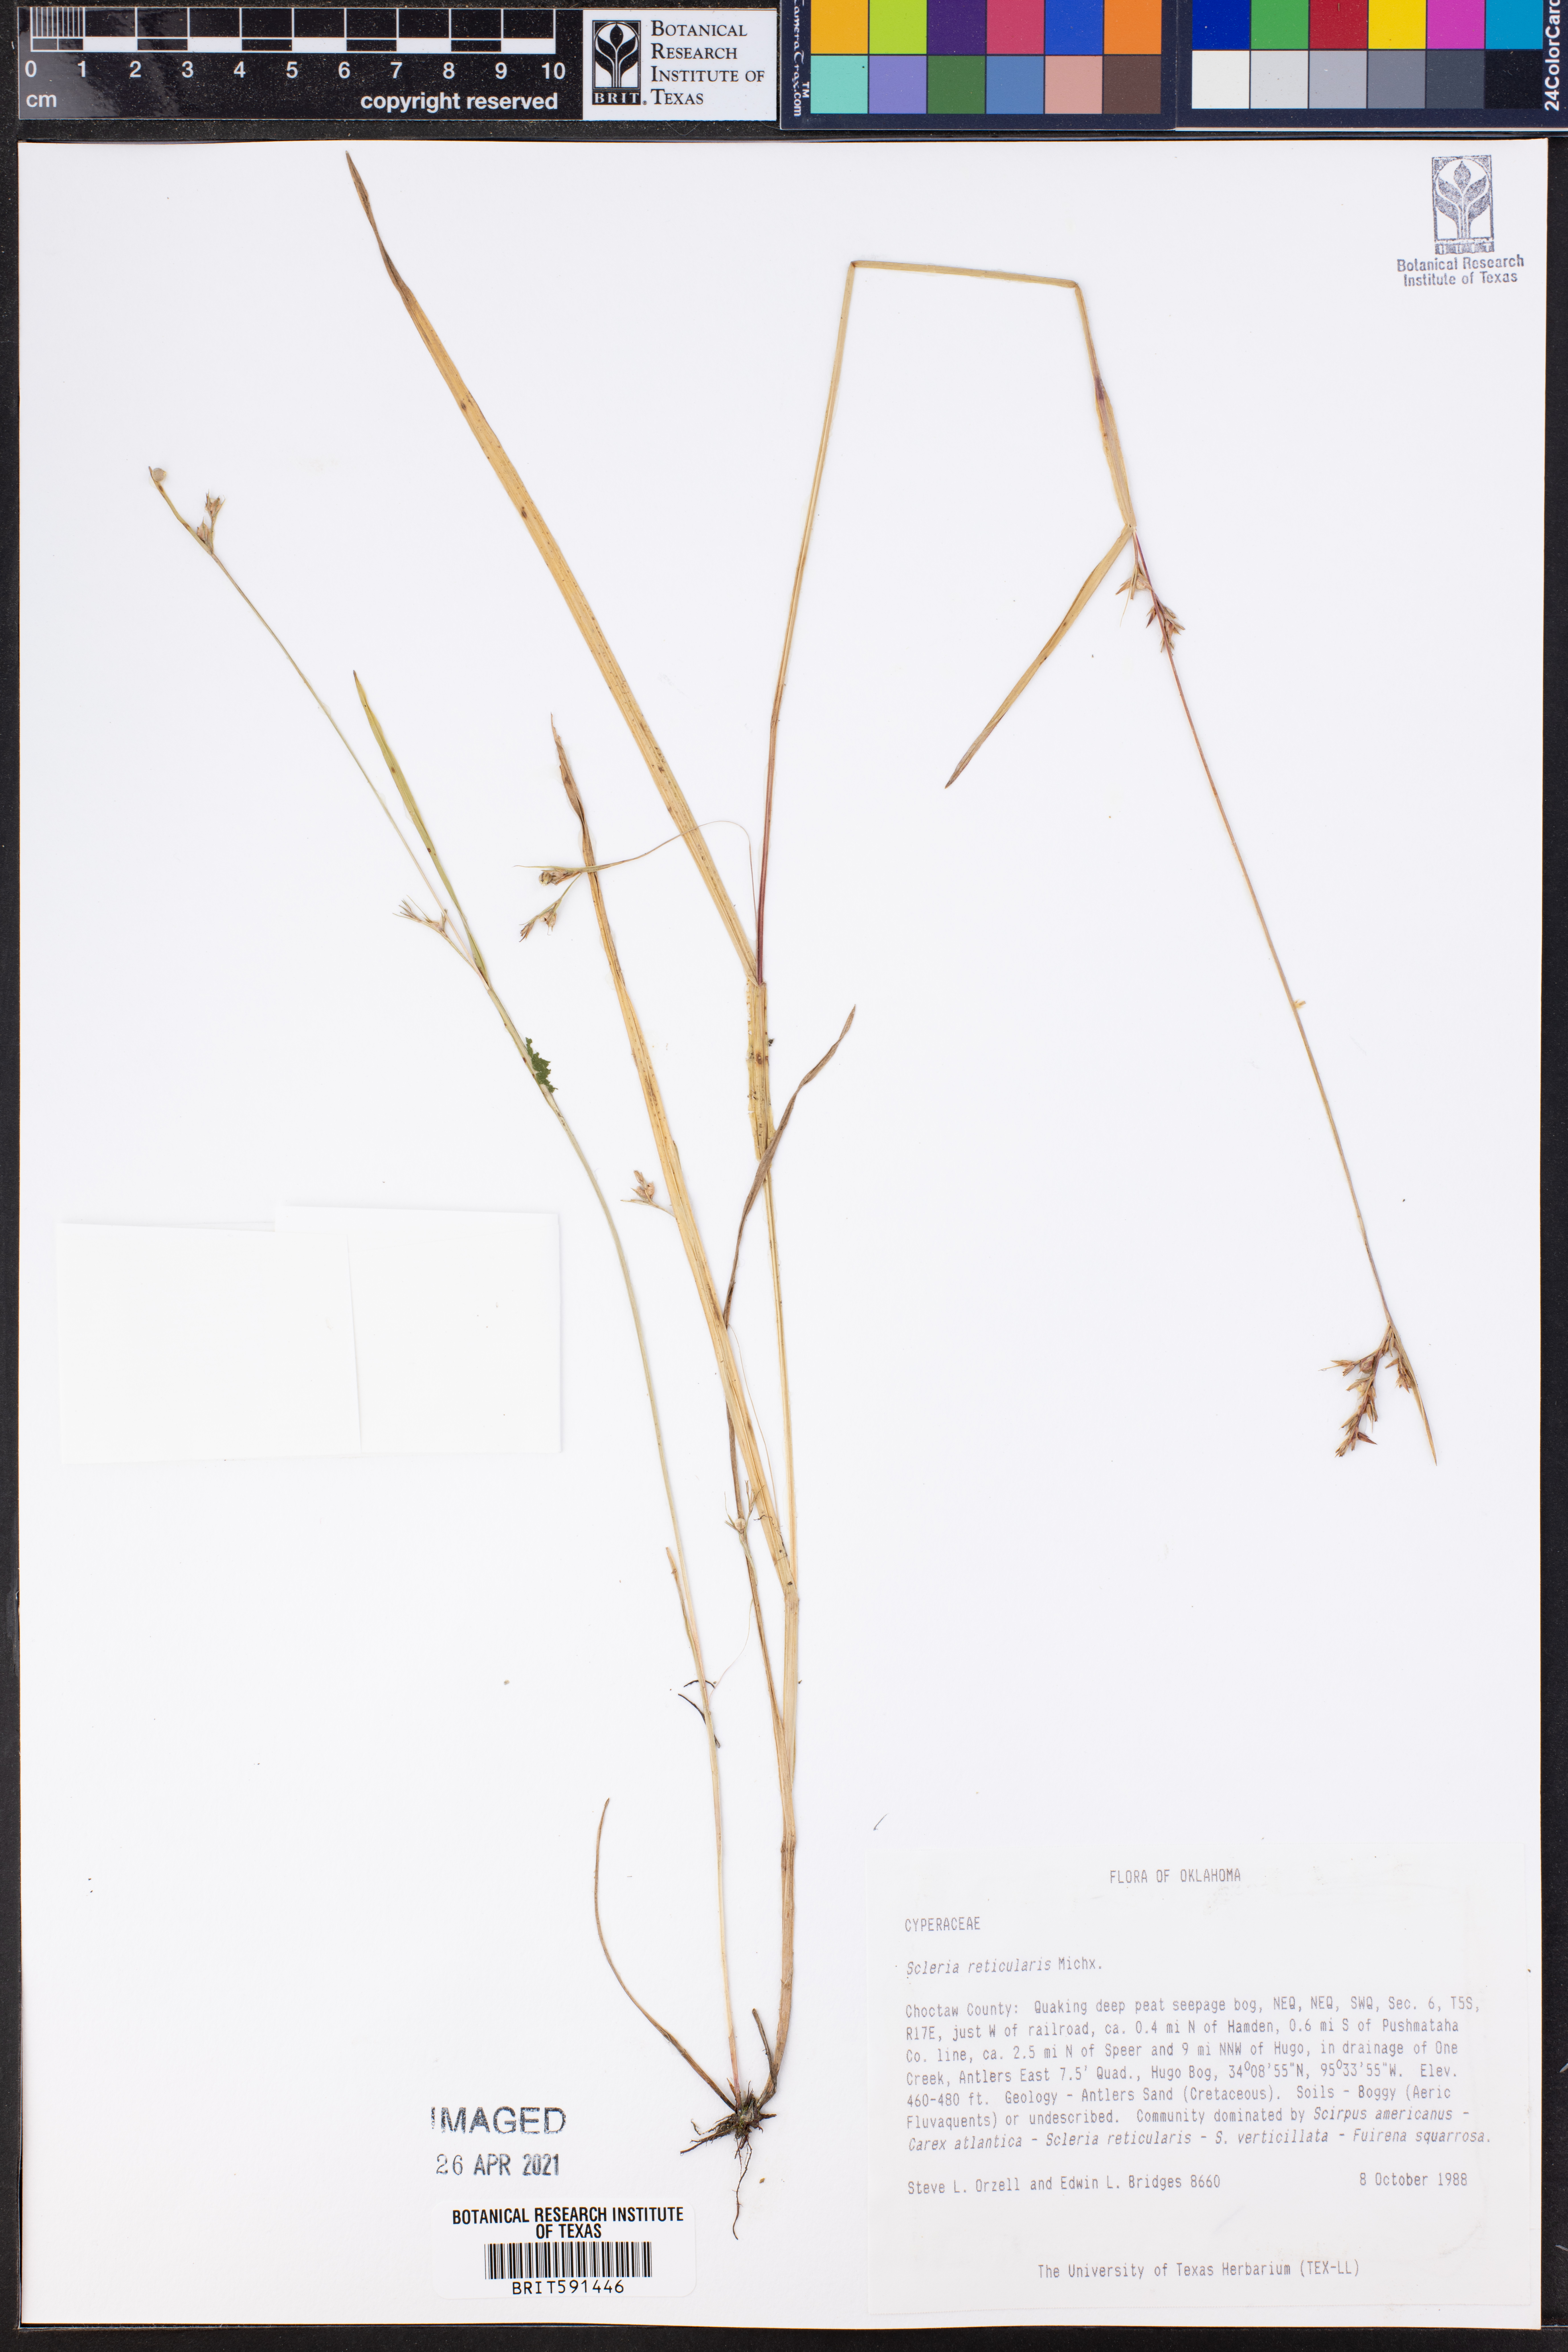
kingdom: Plantae
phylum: Tracheophyta
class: Liliopsida
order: Poales
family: Cyperaceae
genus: Scleria
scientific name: Scleria reticularis
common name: Netted nutrush
